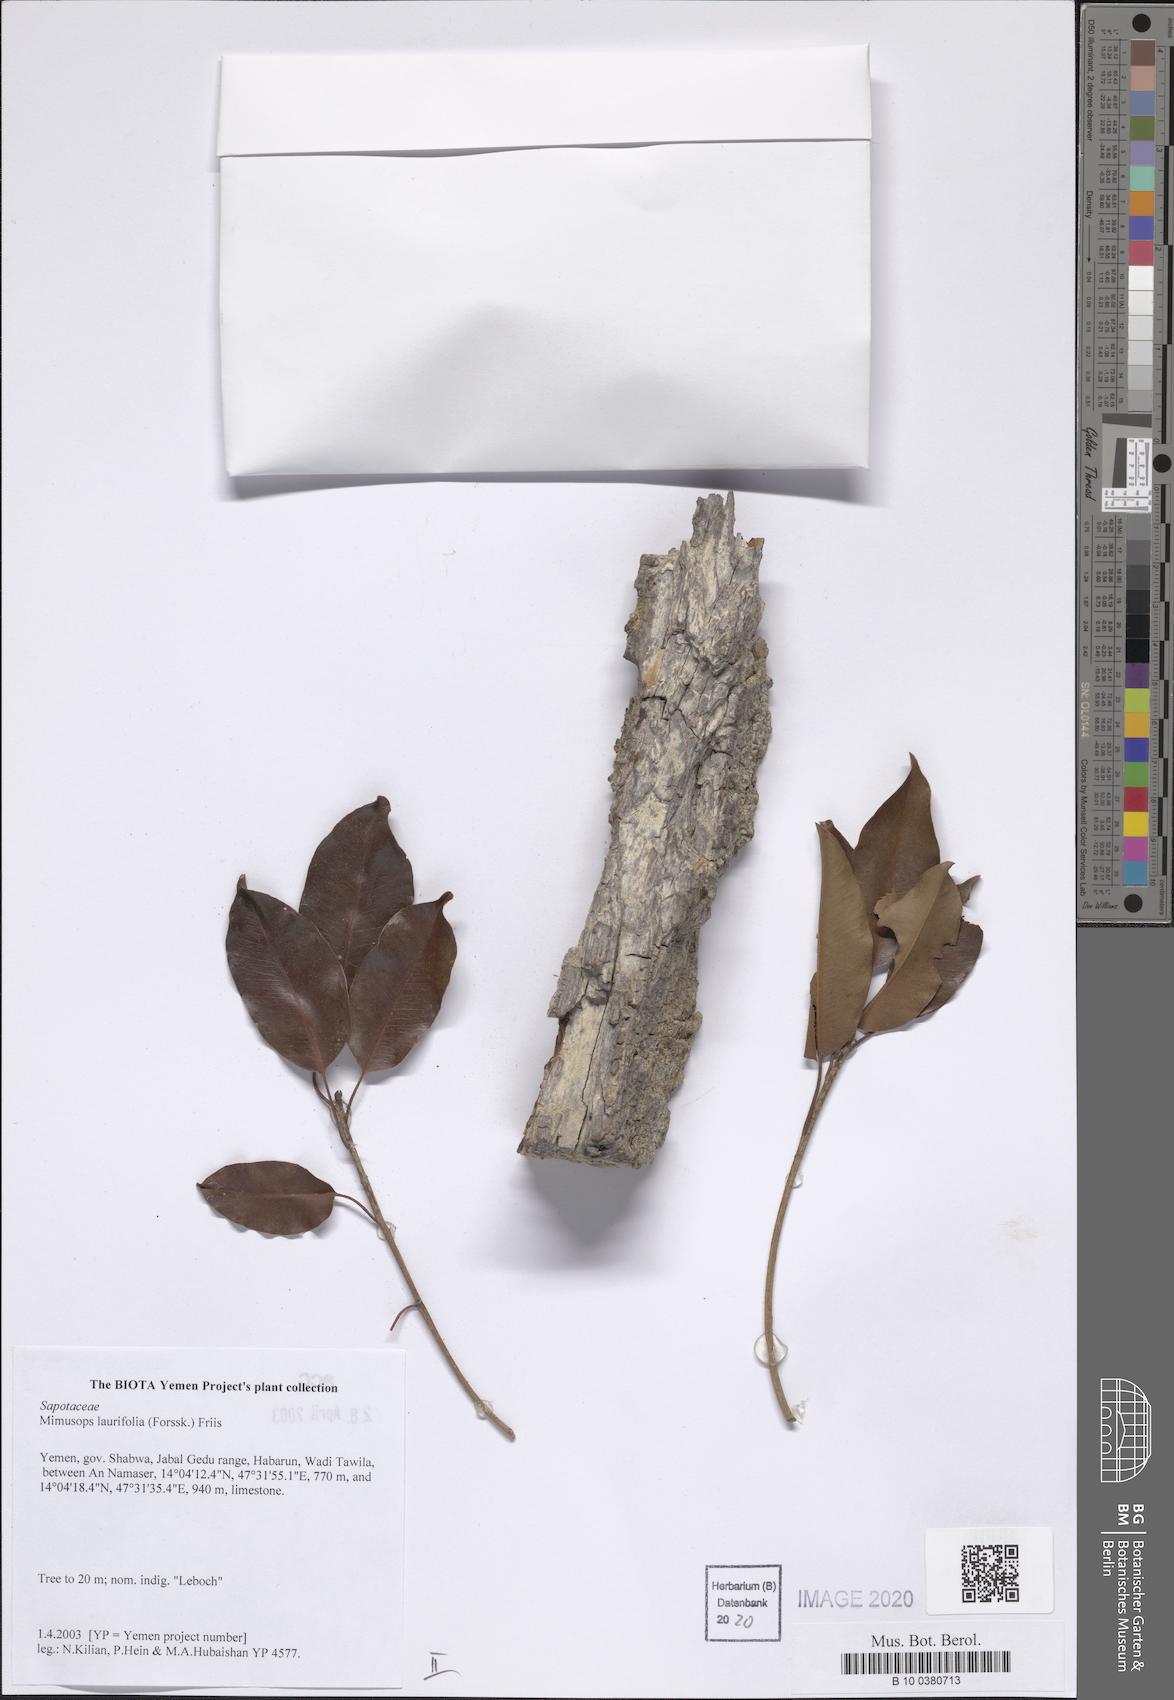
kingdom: Plantae
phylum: Tracheophyta
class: Magnoliopsida
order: Ericales
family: Sapotaceae
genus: Mimusops
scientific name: Mimusops laurifolia
